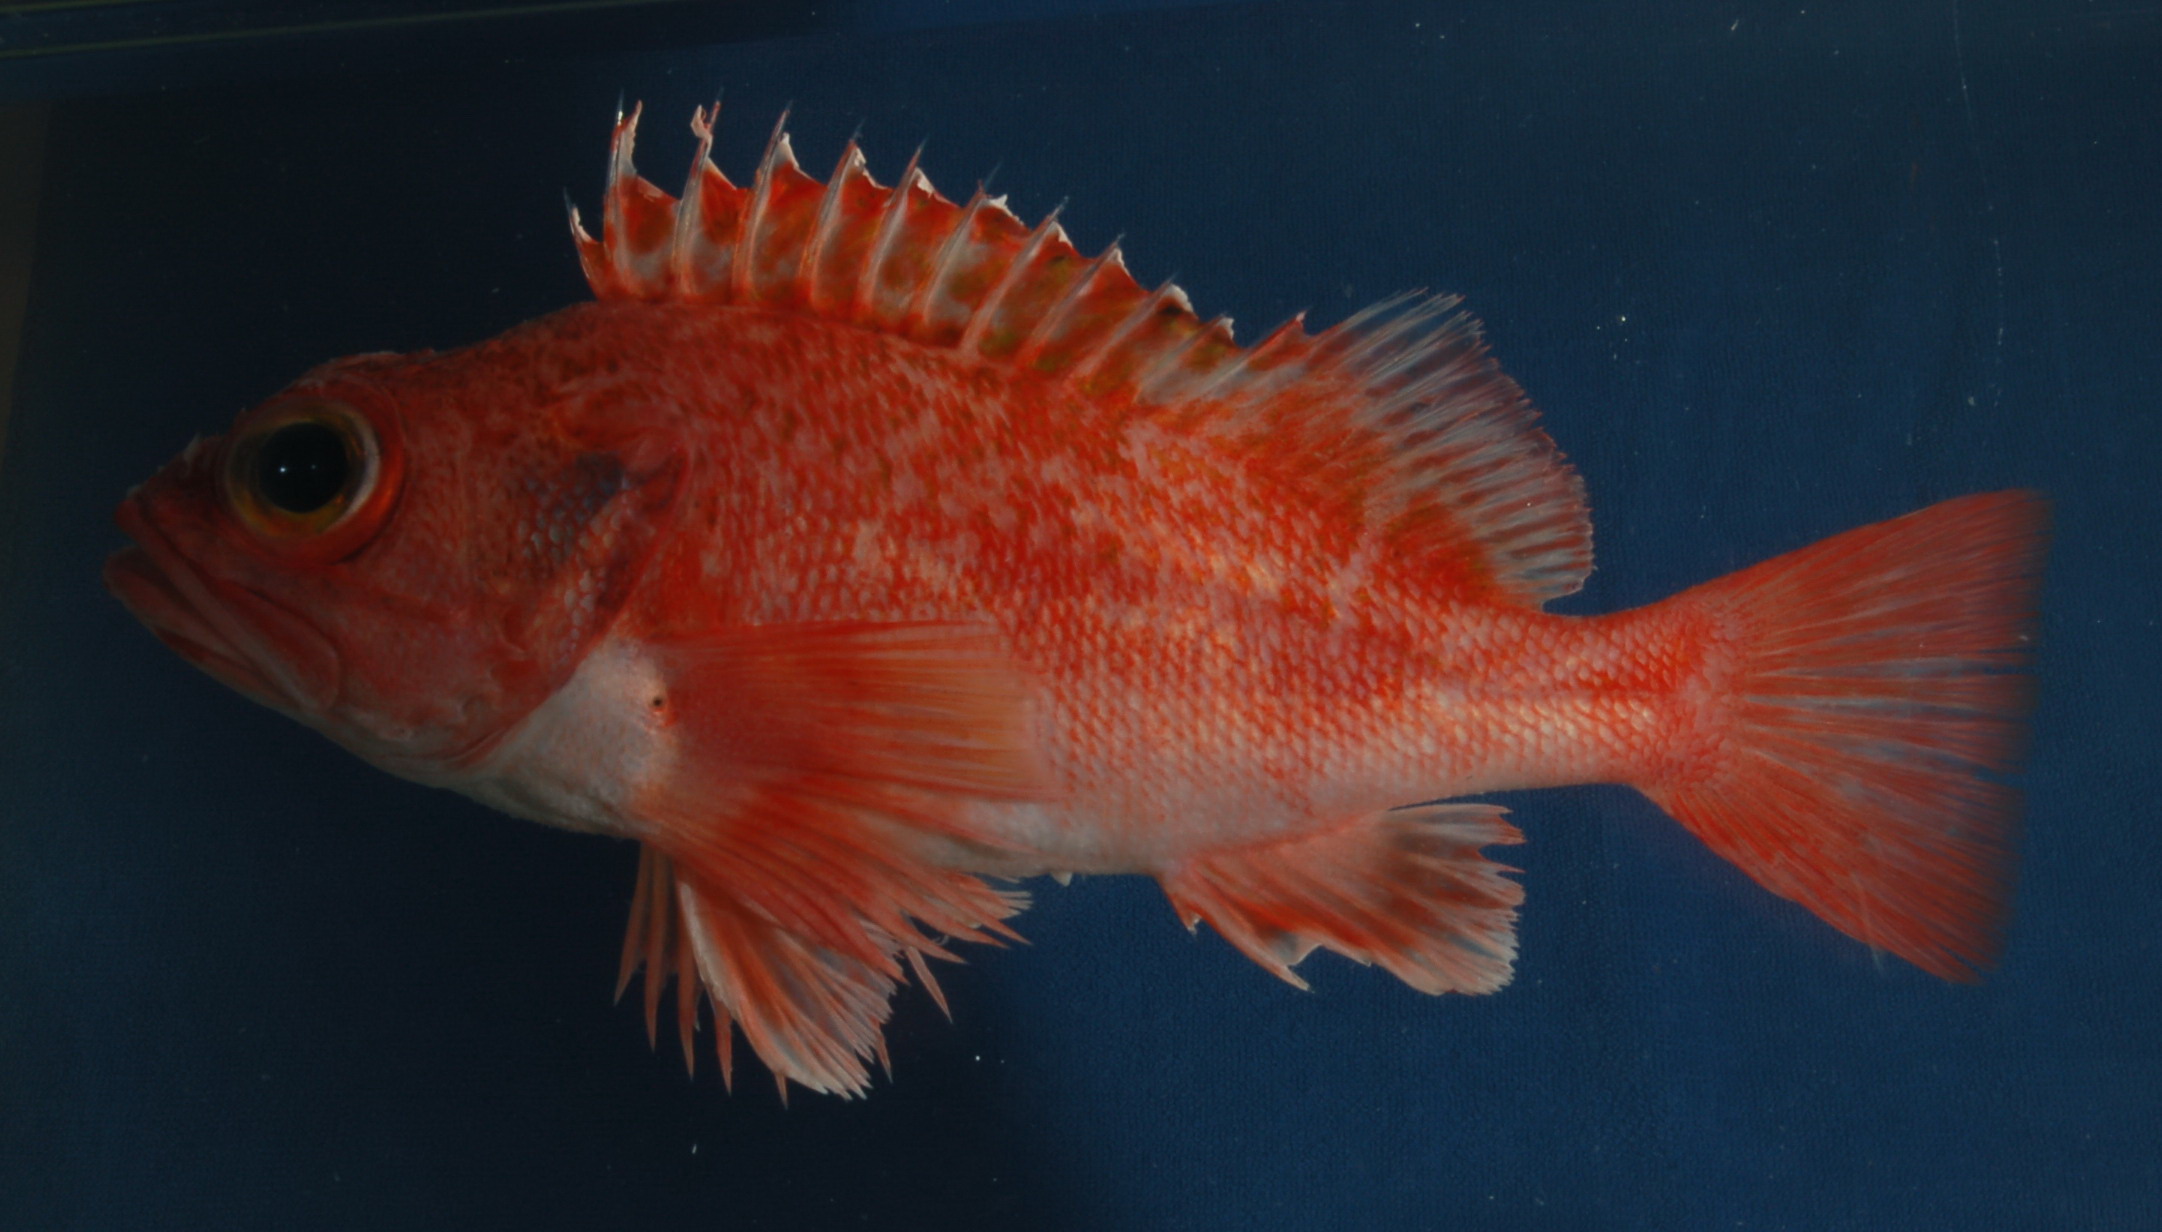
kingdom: Animalia
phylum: Chordata
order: Scorpaeniformes
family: Sebastidae
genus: Helicolenus
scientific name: Helicolenus dactylopterus
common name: Blackbelly rosefish
